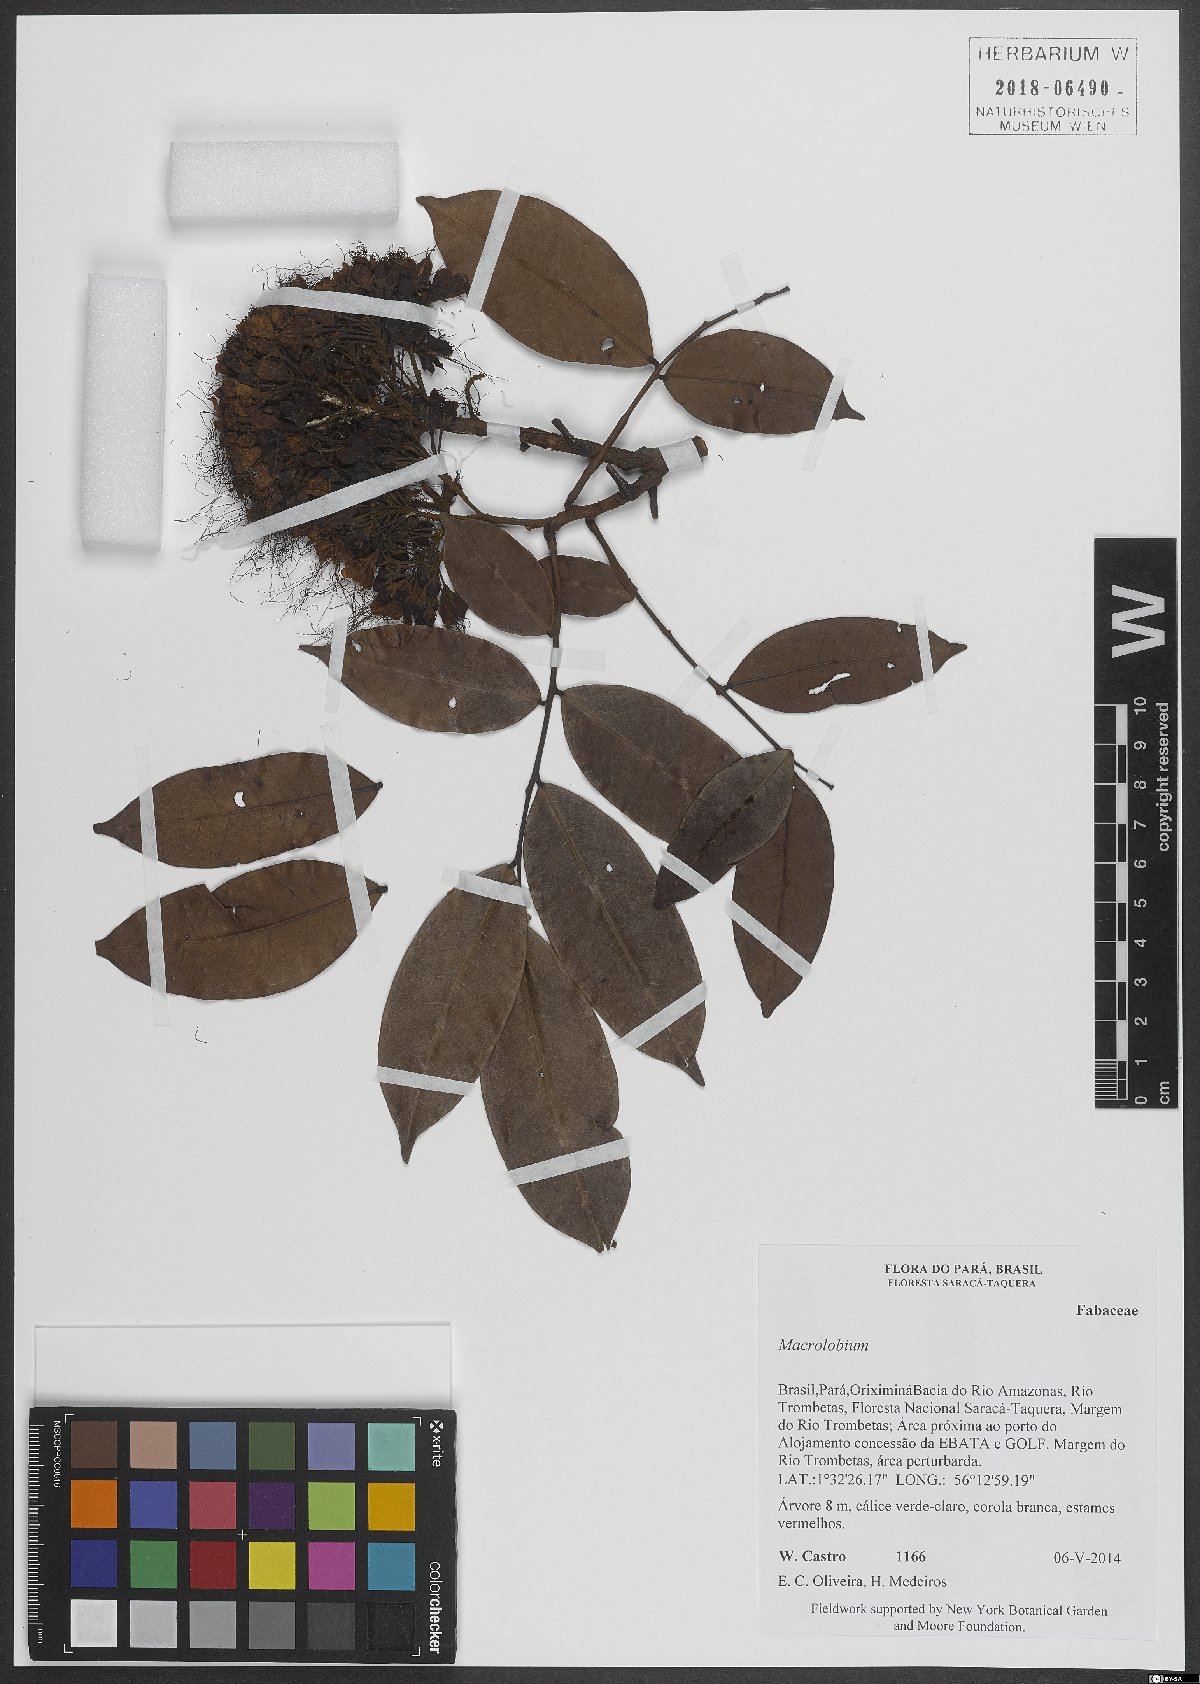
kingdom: Plantae
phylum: Tracheophyta
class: Magnoliopsida
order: Fabales
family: Fabaceae
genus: Macrolobium
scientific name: Macrolobium
